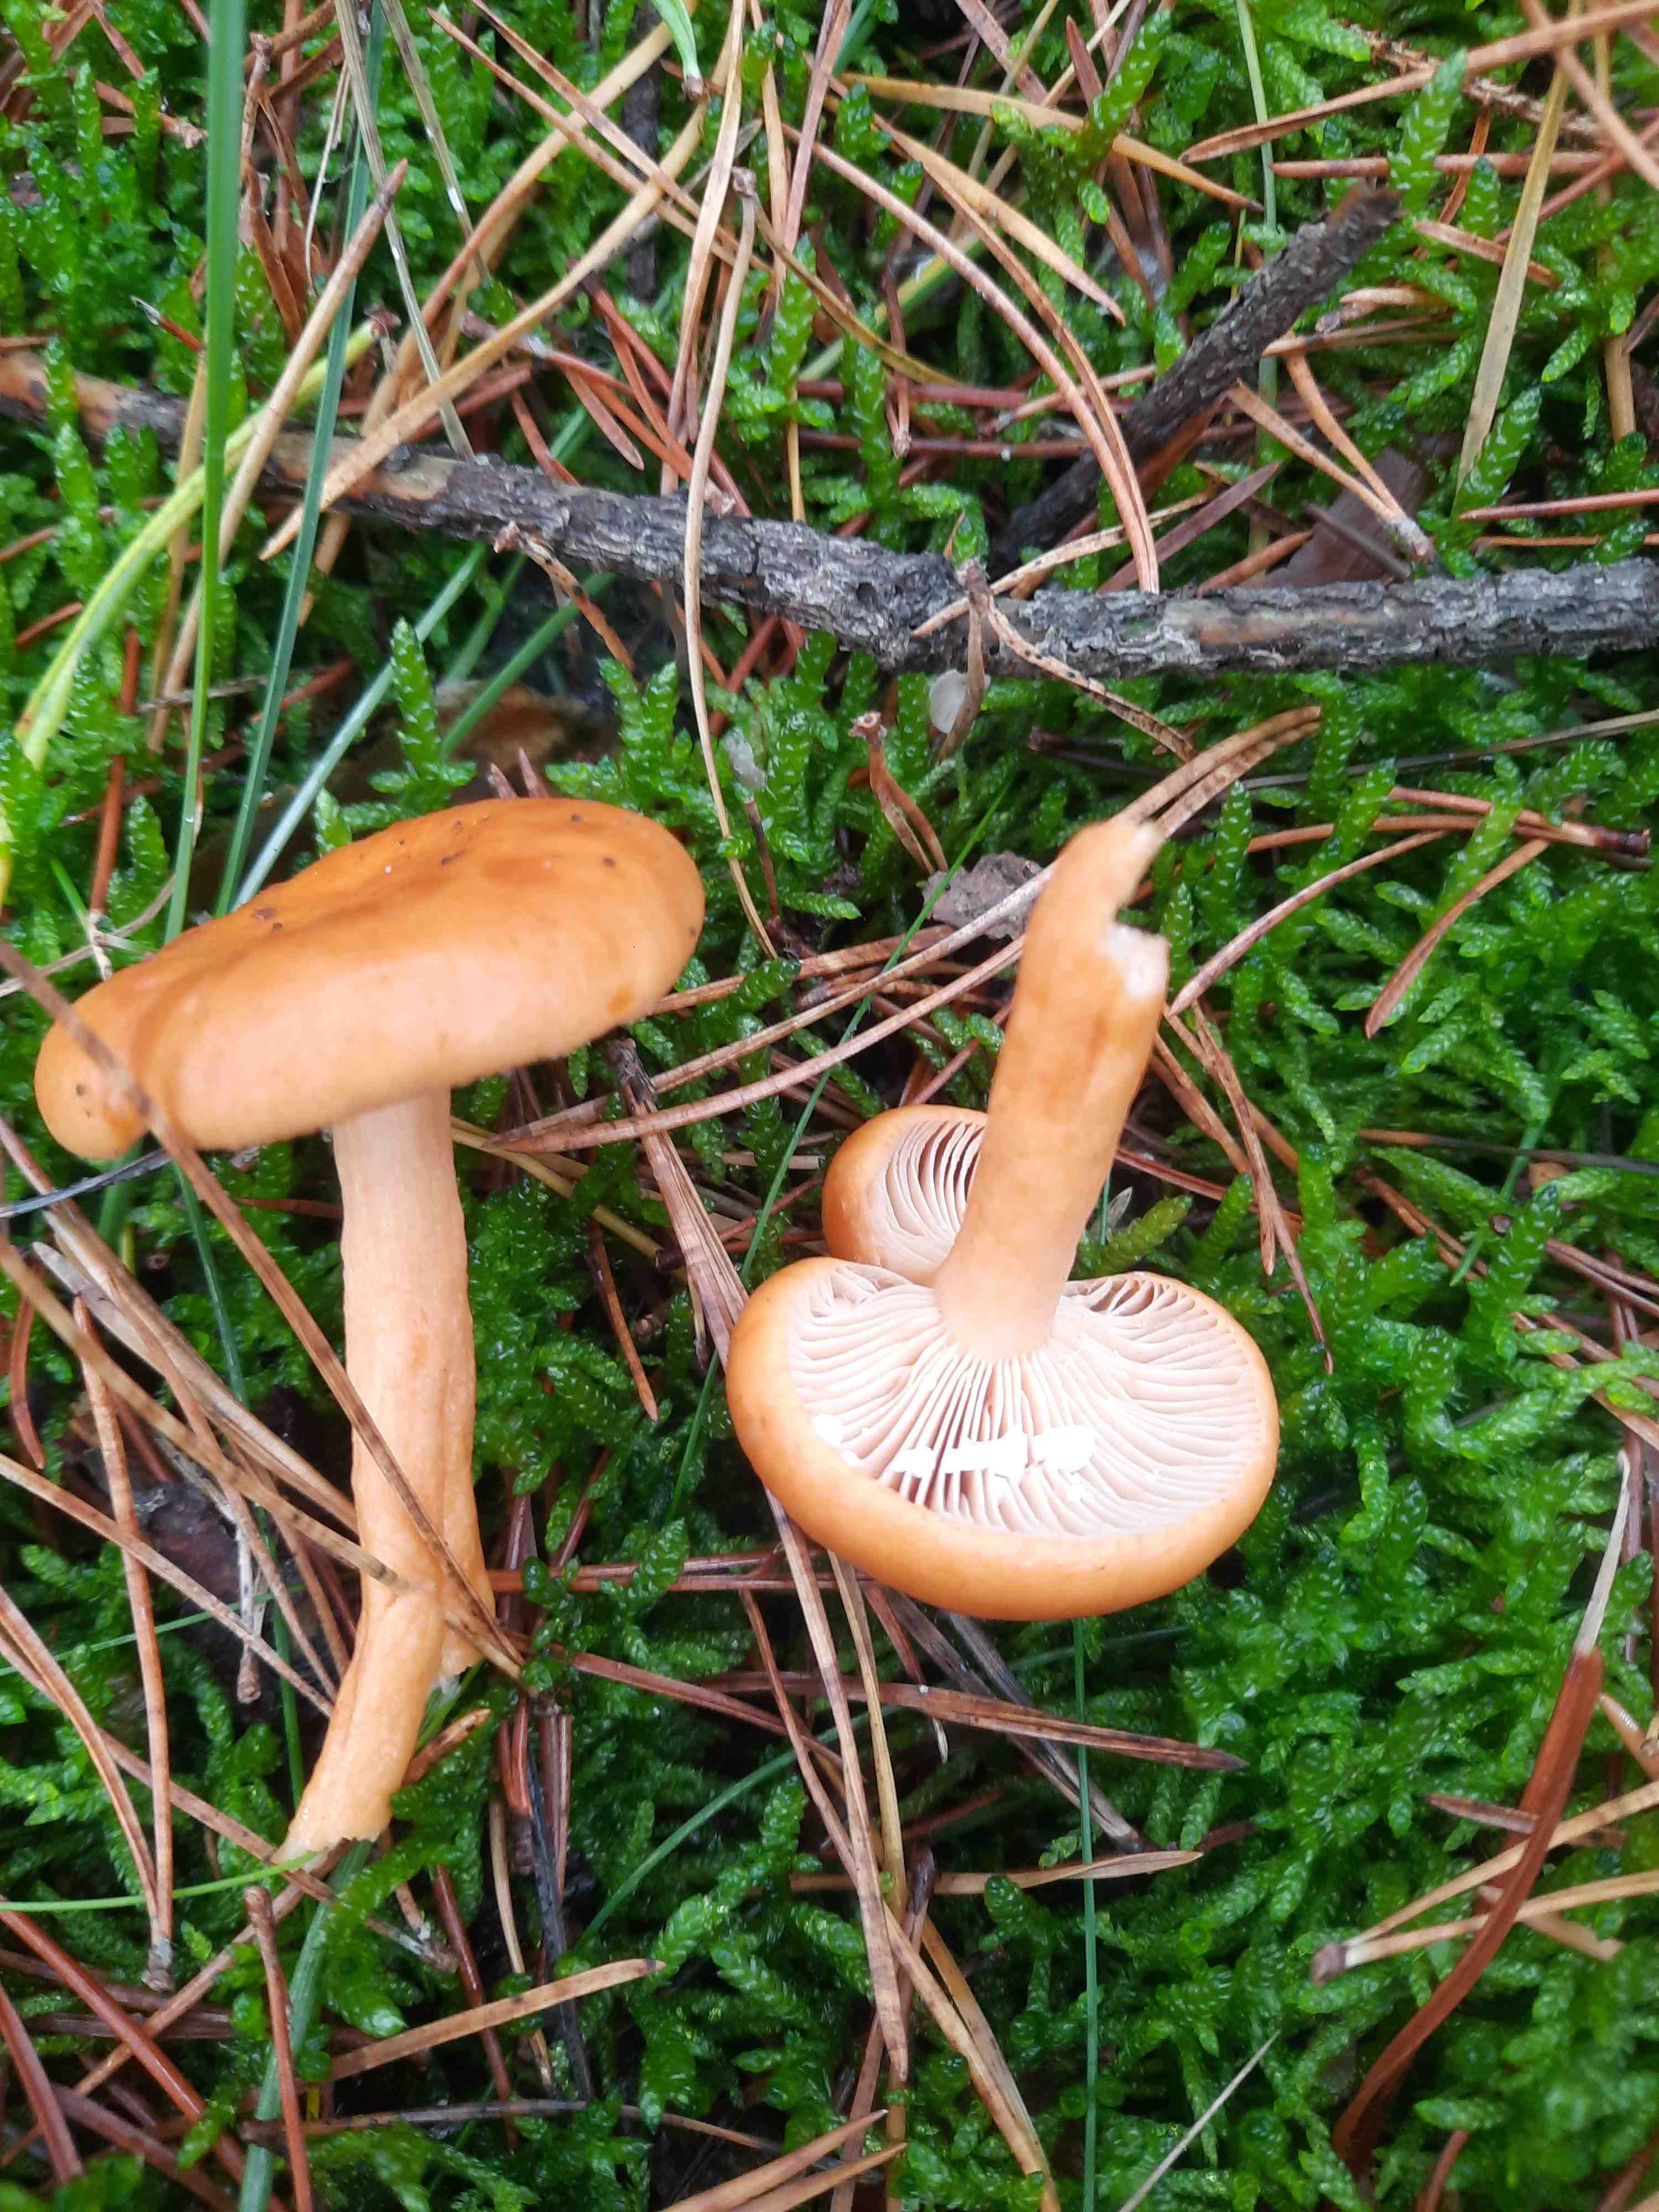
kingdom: Fungi
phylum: Basidiomycota
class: Agaricomycetes
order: Russulales
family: Russulaceae
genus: Lactarius
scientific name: Lactarius aurantiacus
